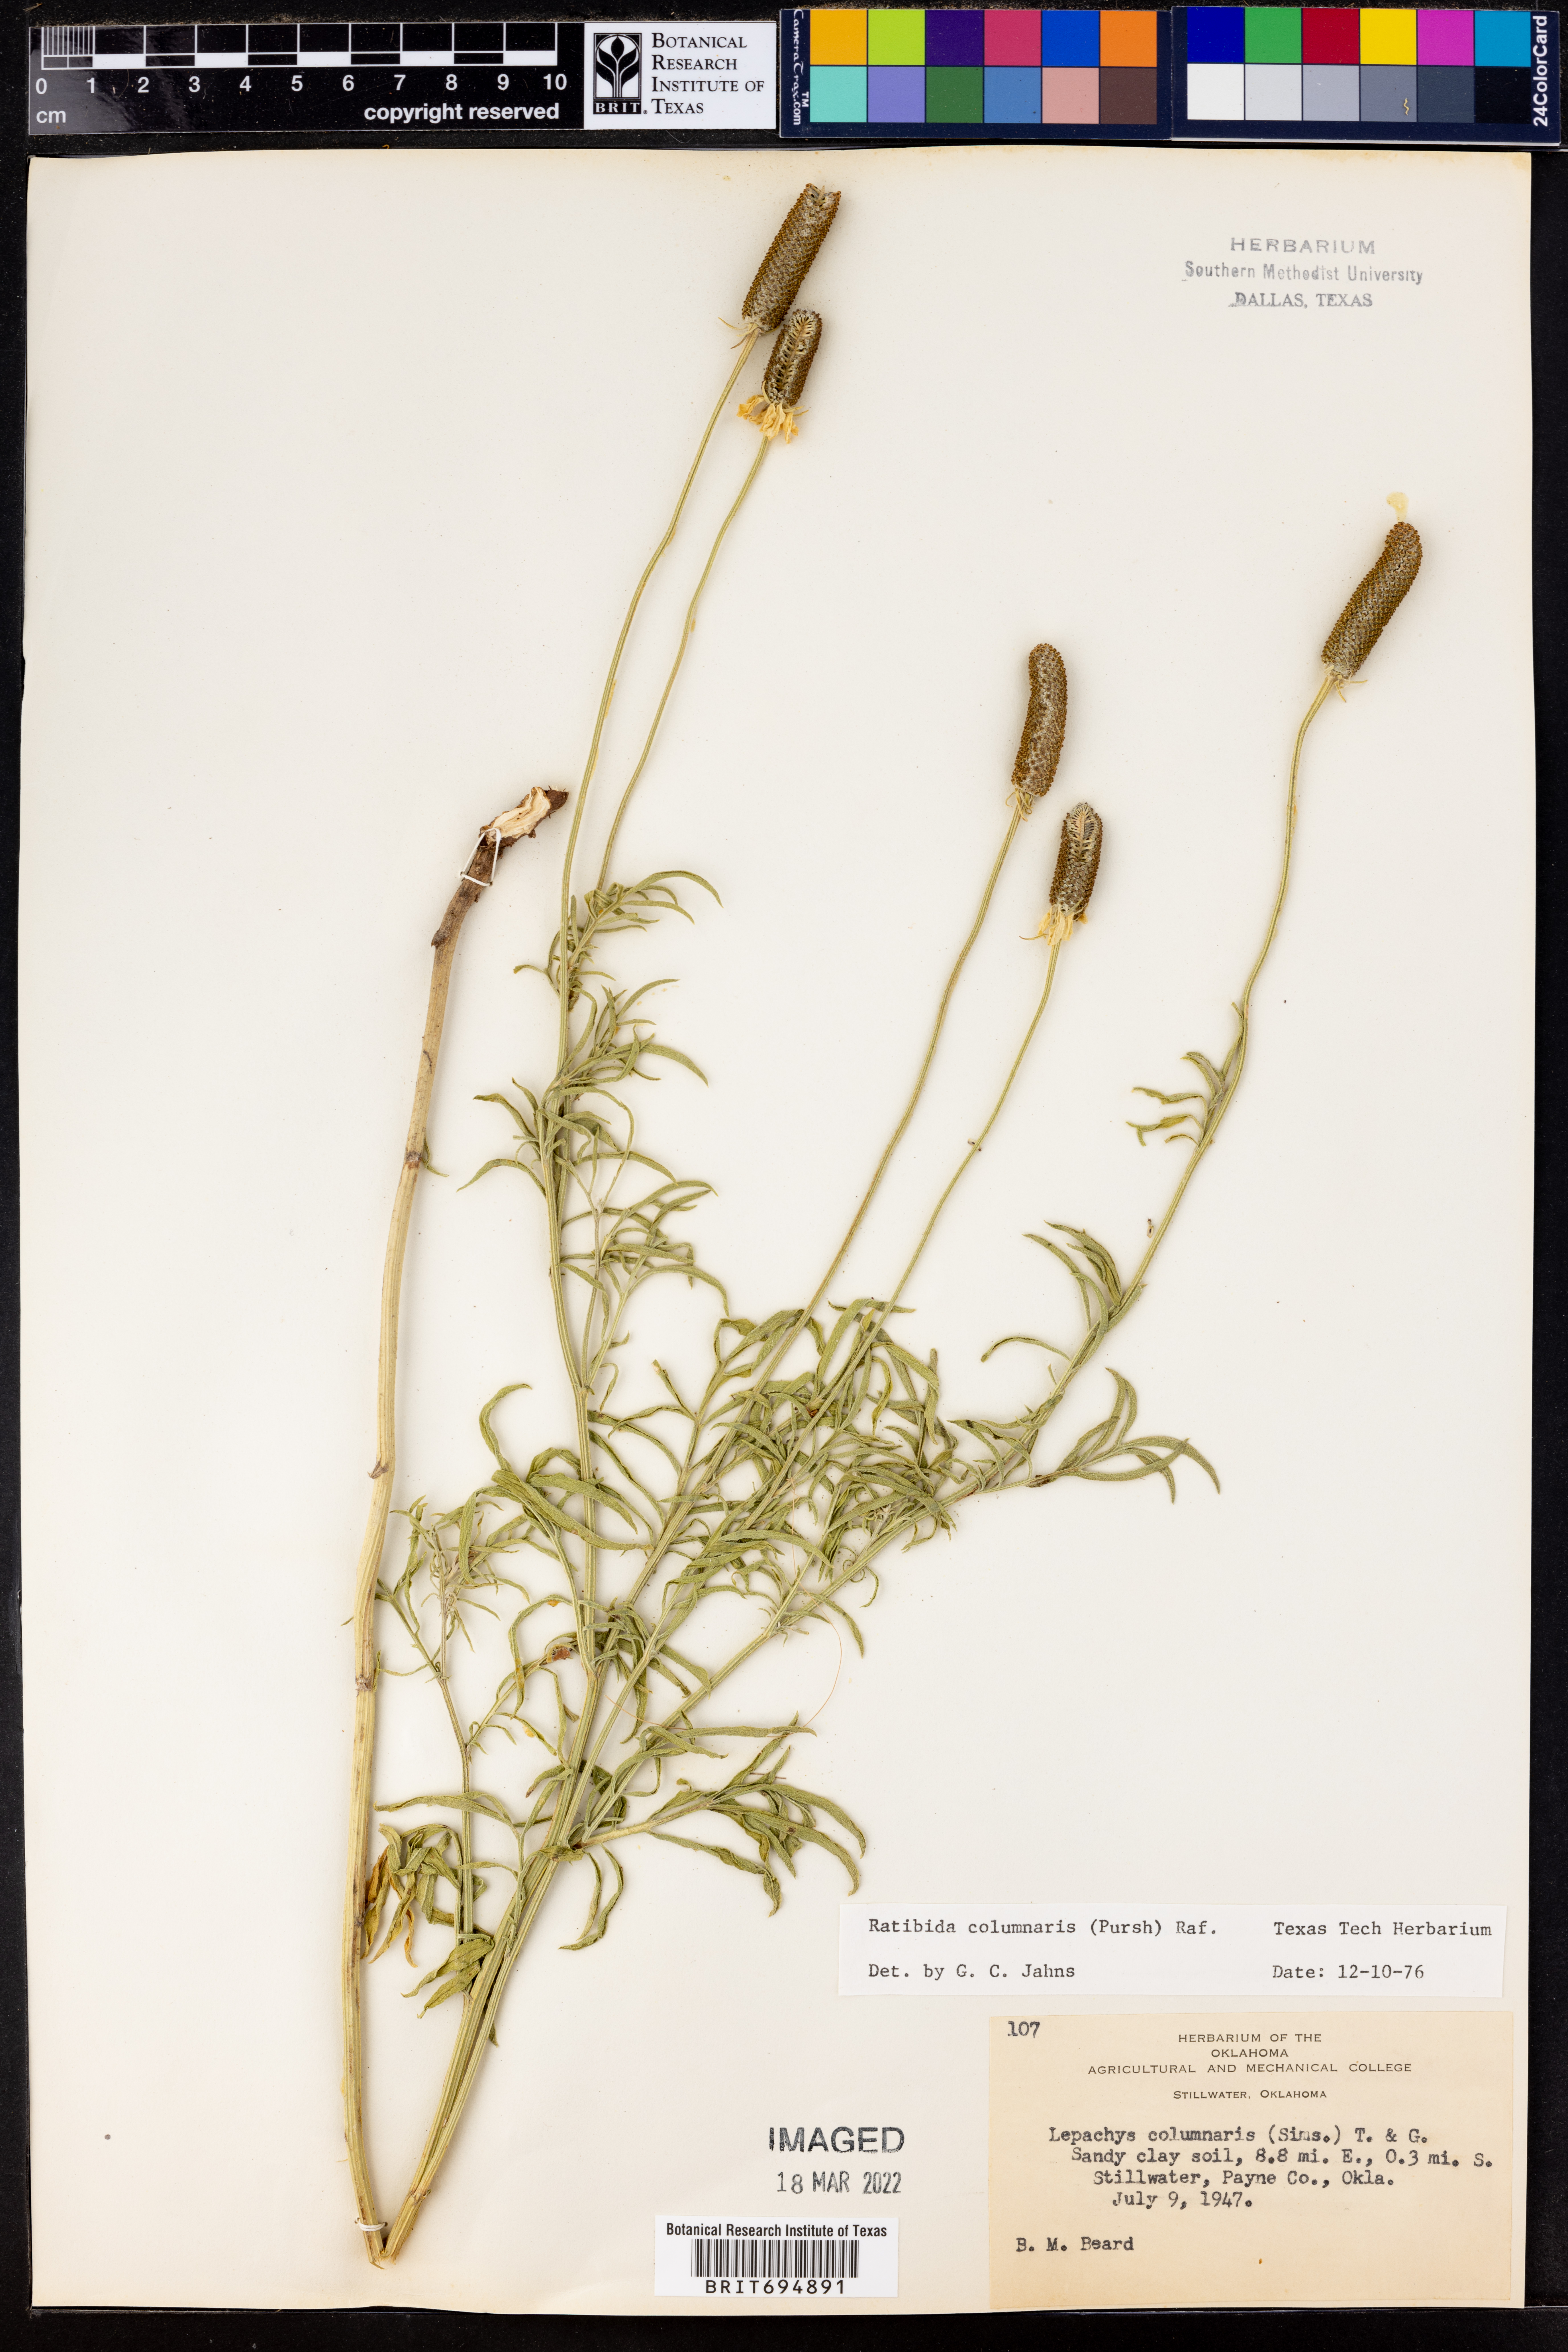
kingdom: Plantae
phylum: Tracheophyta
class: Magnoliopsida
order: Asterales
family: Asteraceae
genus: Ratibida
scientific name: Ratibida columnifera
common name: Prairie coneflower
